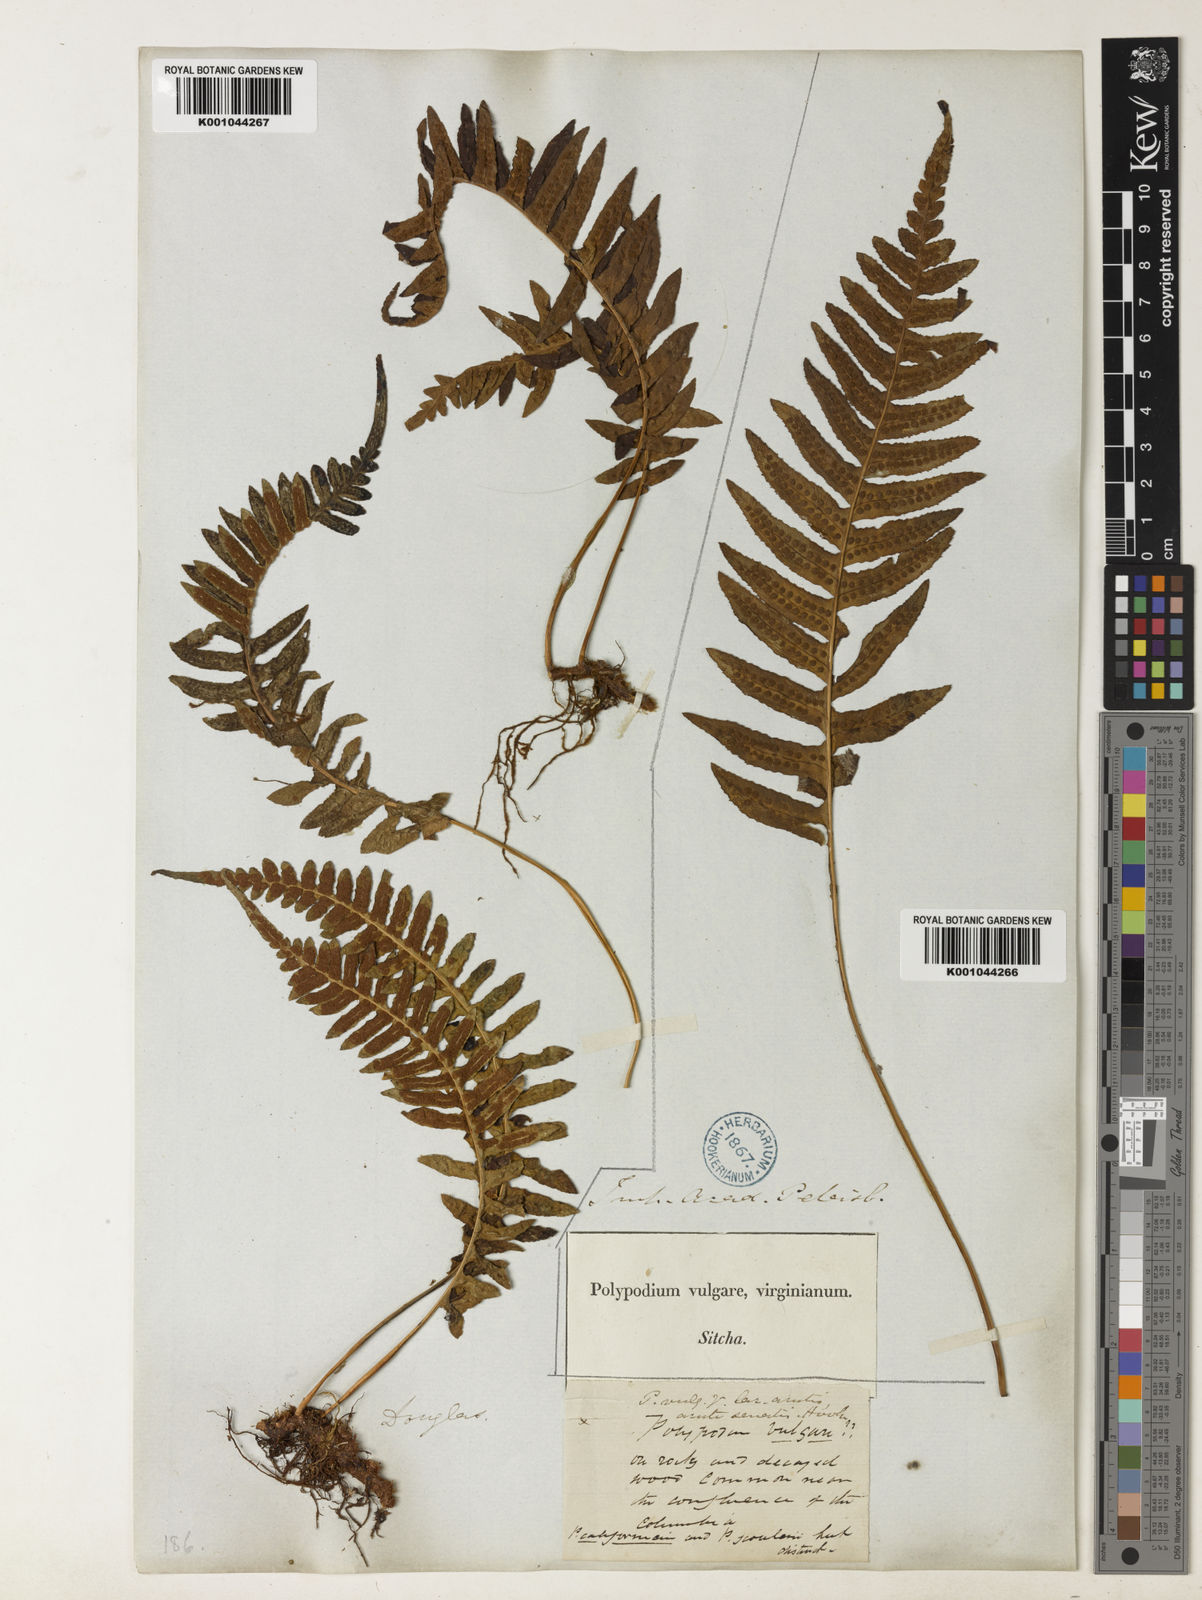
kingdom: Plantae
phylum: Tracheophyta
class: Polypodiopsida
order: Polypodiales
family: Polypodiaceae
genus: Polypodium
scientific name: Polypodium glycyrrhiza
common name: Licorice fern
